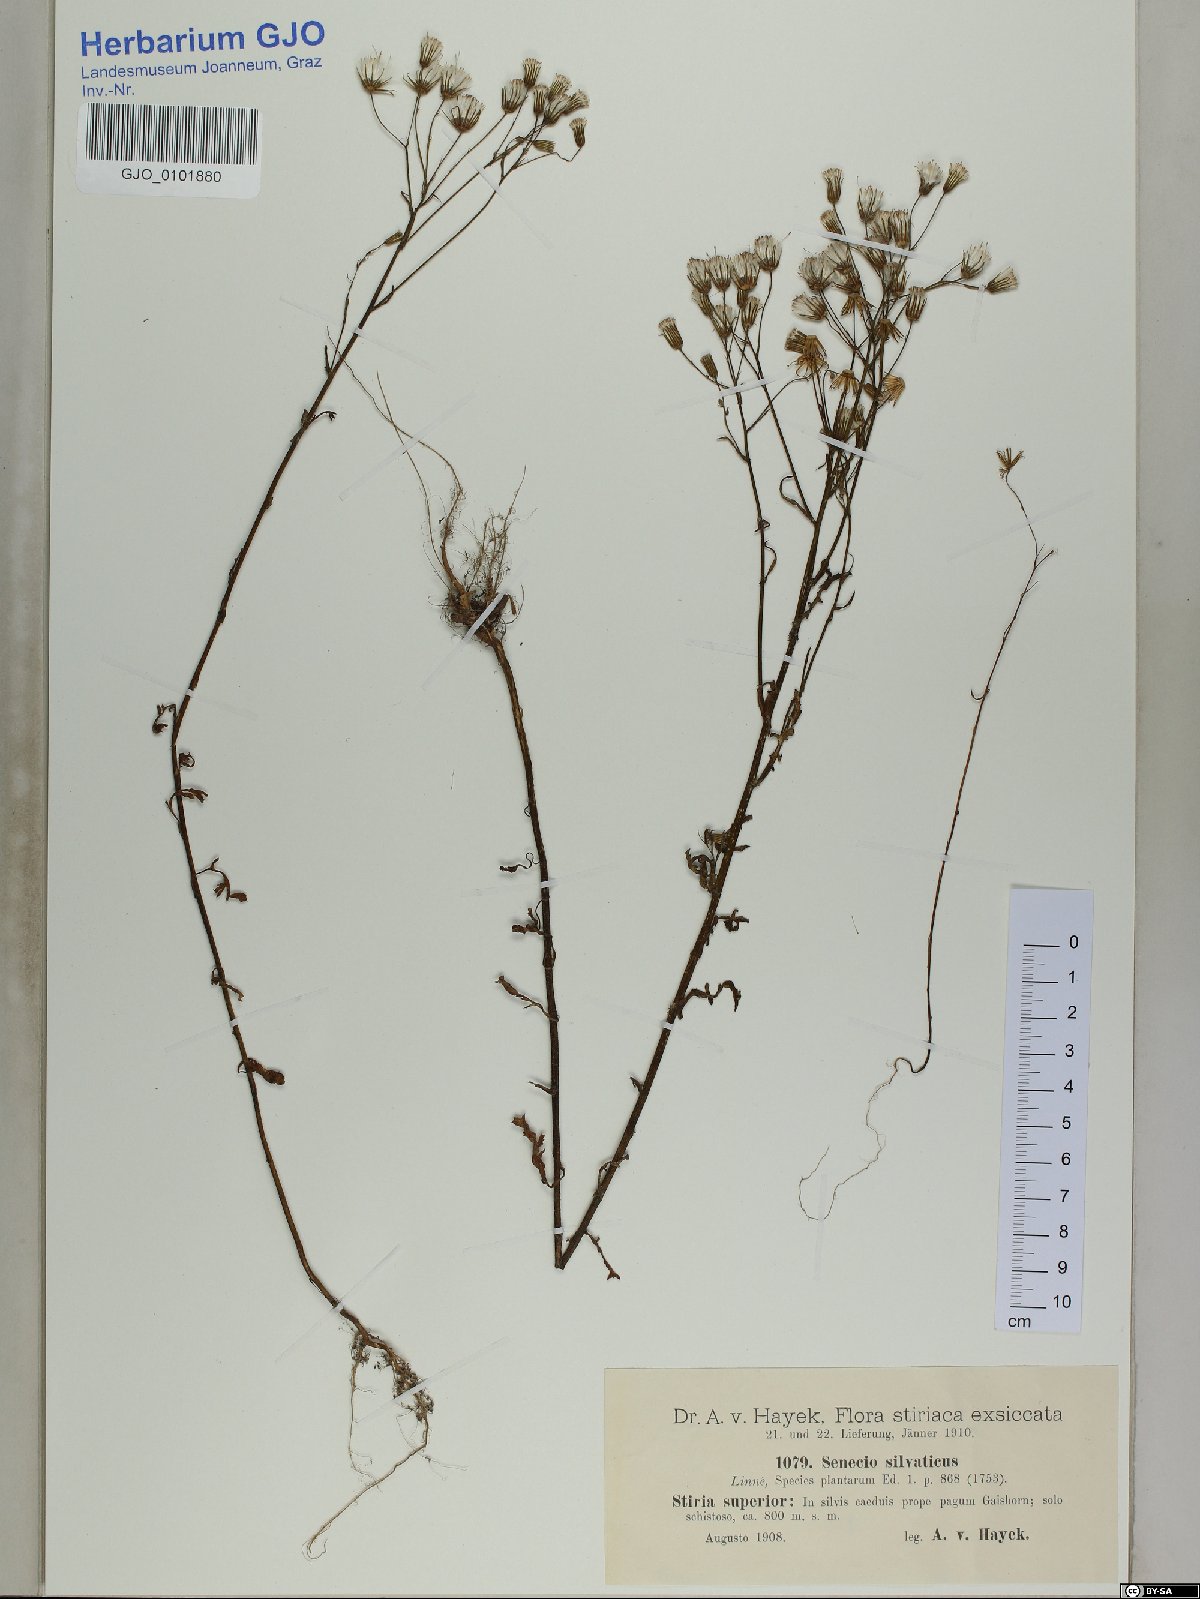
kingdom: Plantae
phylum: Tracheophyta
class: Magnoliopsida
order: Asterales
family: Asteraceae
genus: Senecio
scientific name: Senecio sylvaticus
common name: Woodland ragwort
